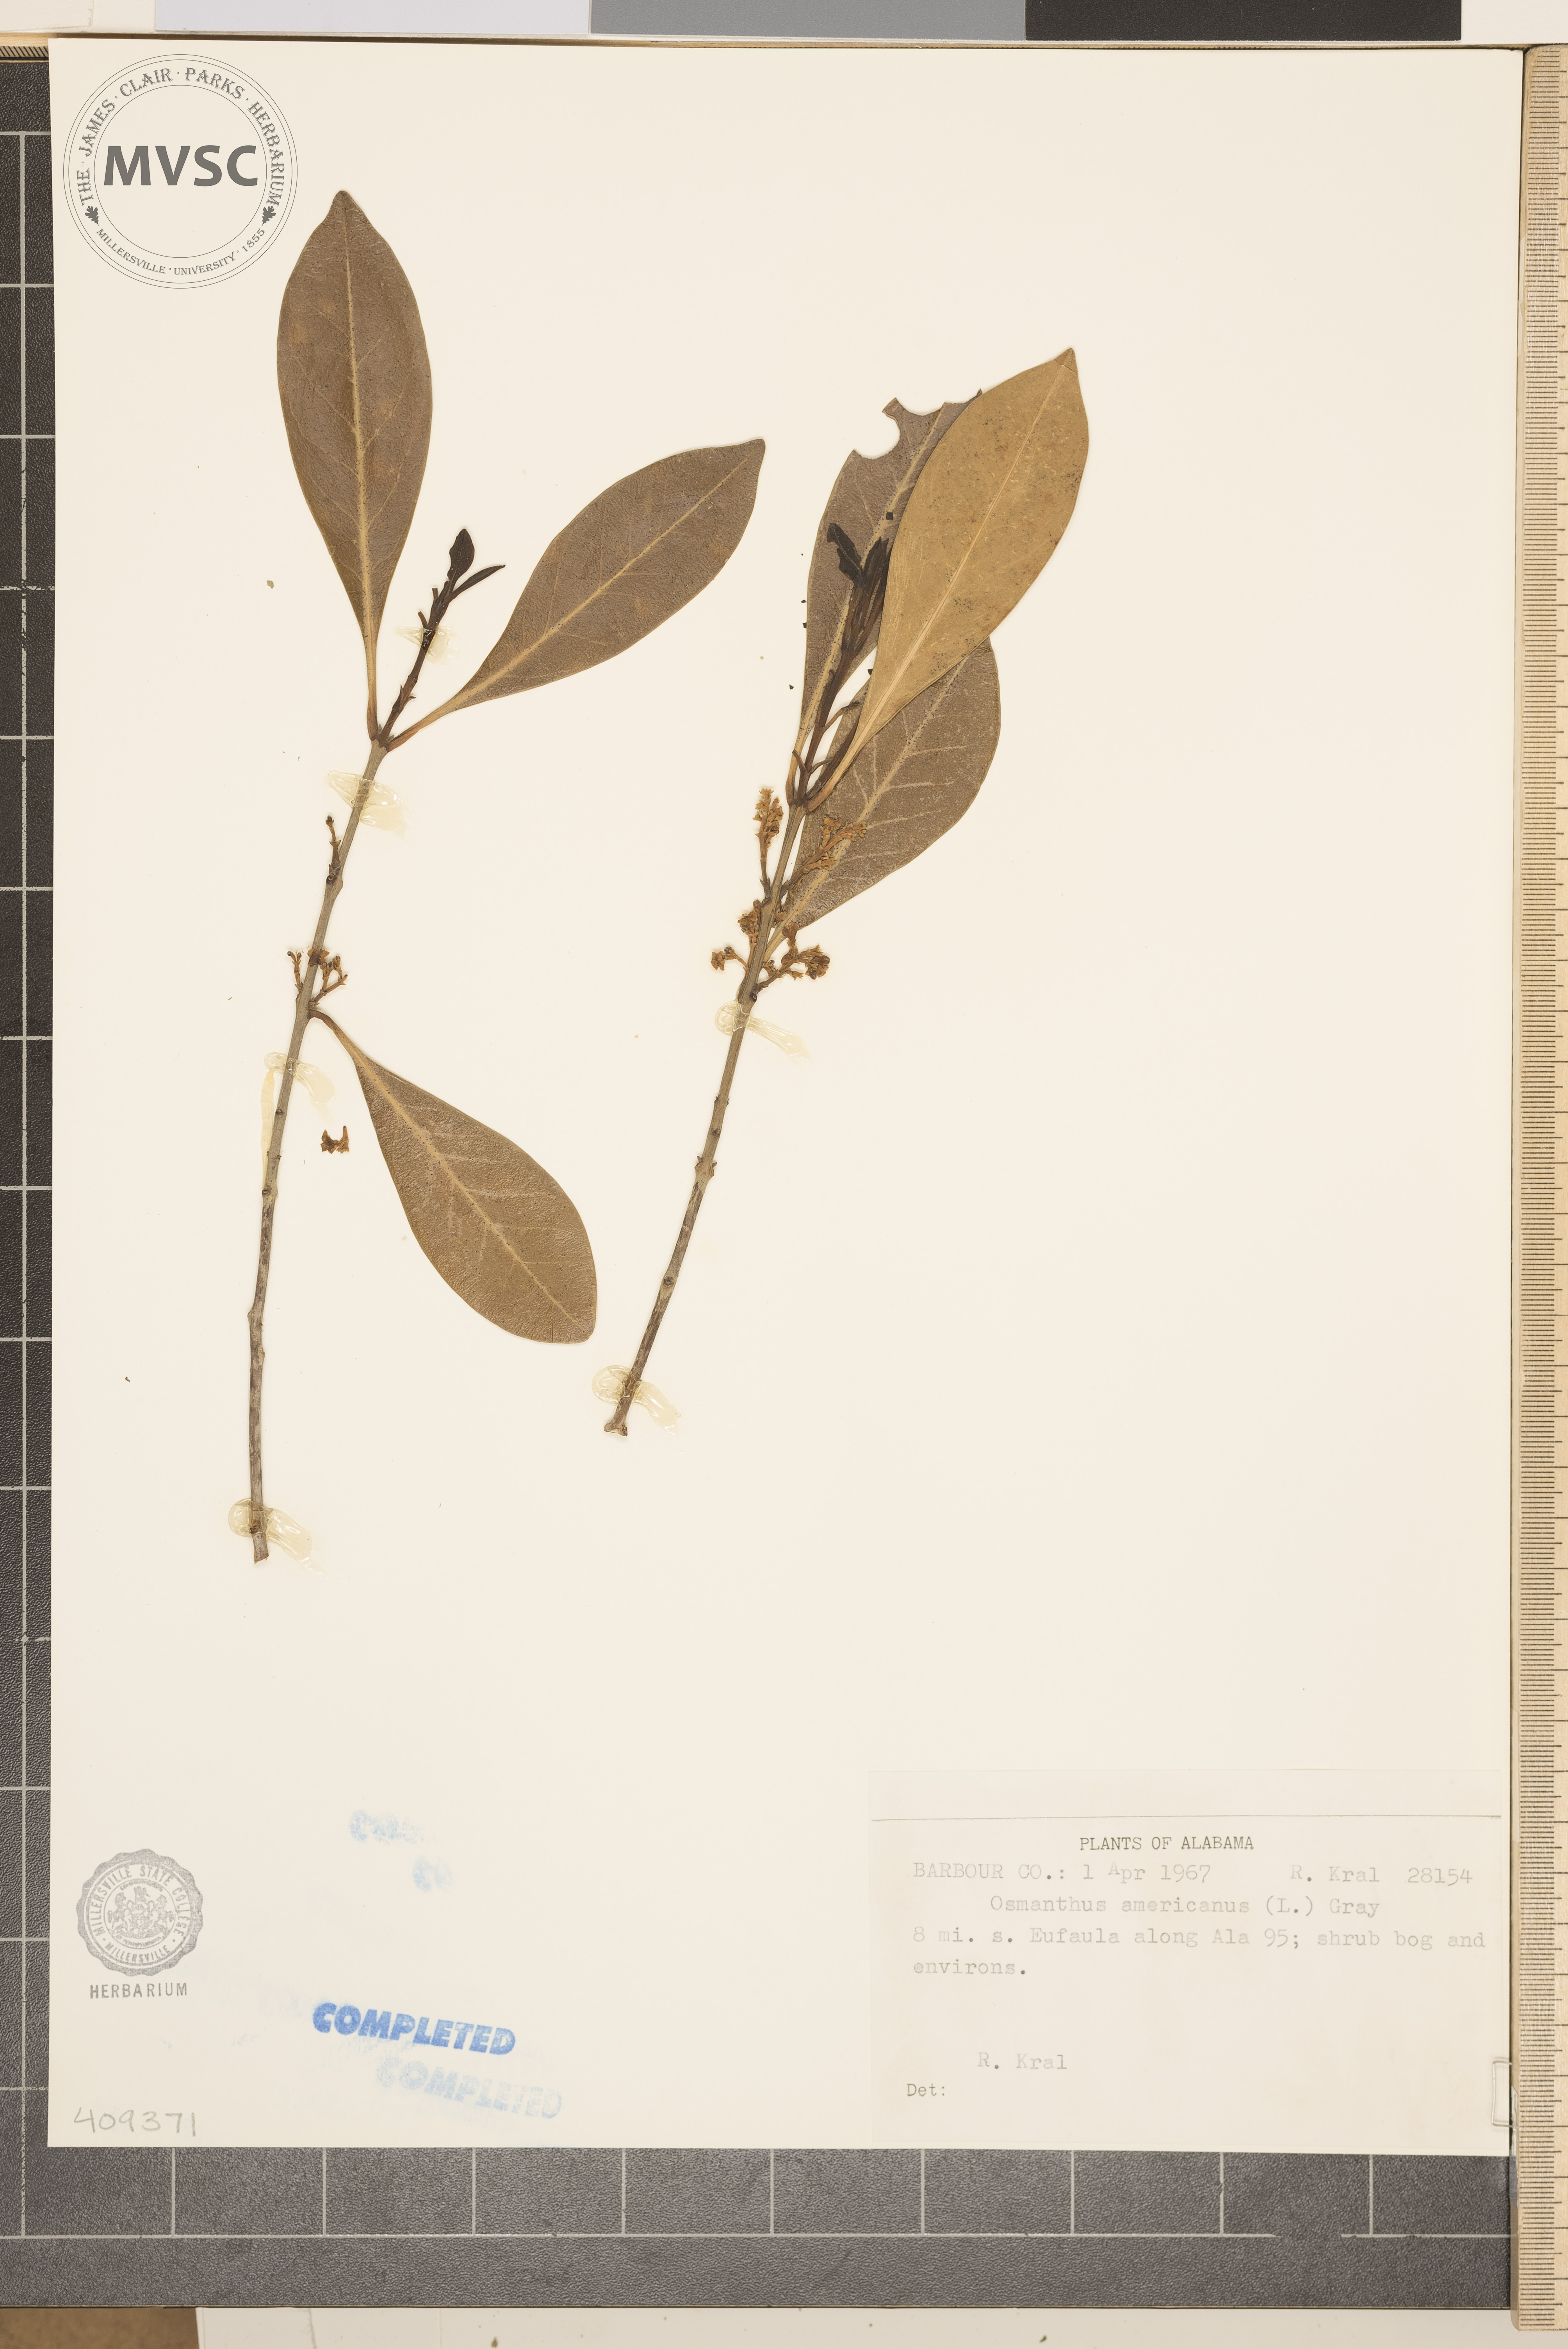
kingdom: Plantae
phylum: Tracheophyta
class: Magnoliopsida
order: Lamiales
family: Oleaceae
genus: Osmanthus
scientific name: Osmanthus americanus
